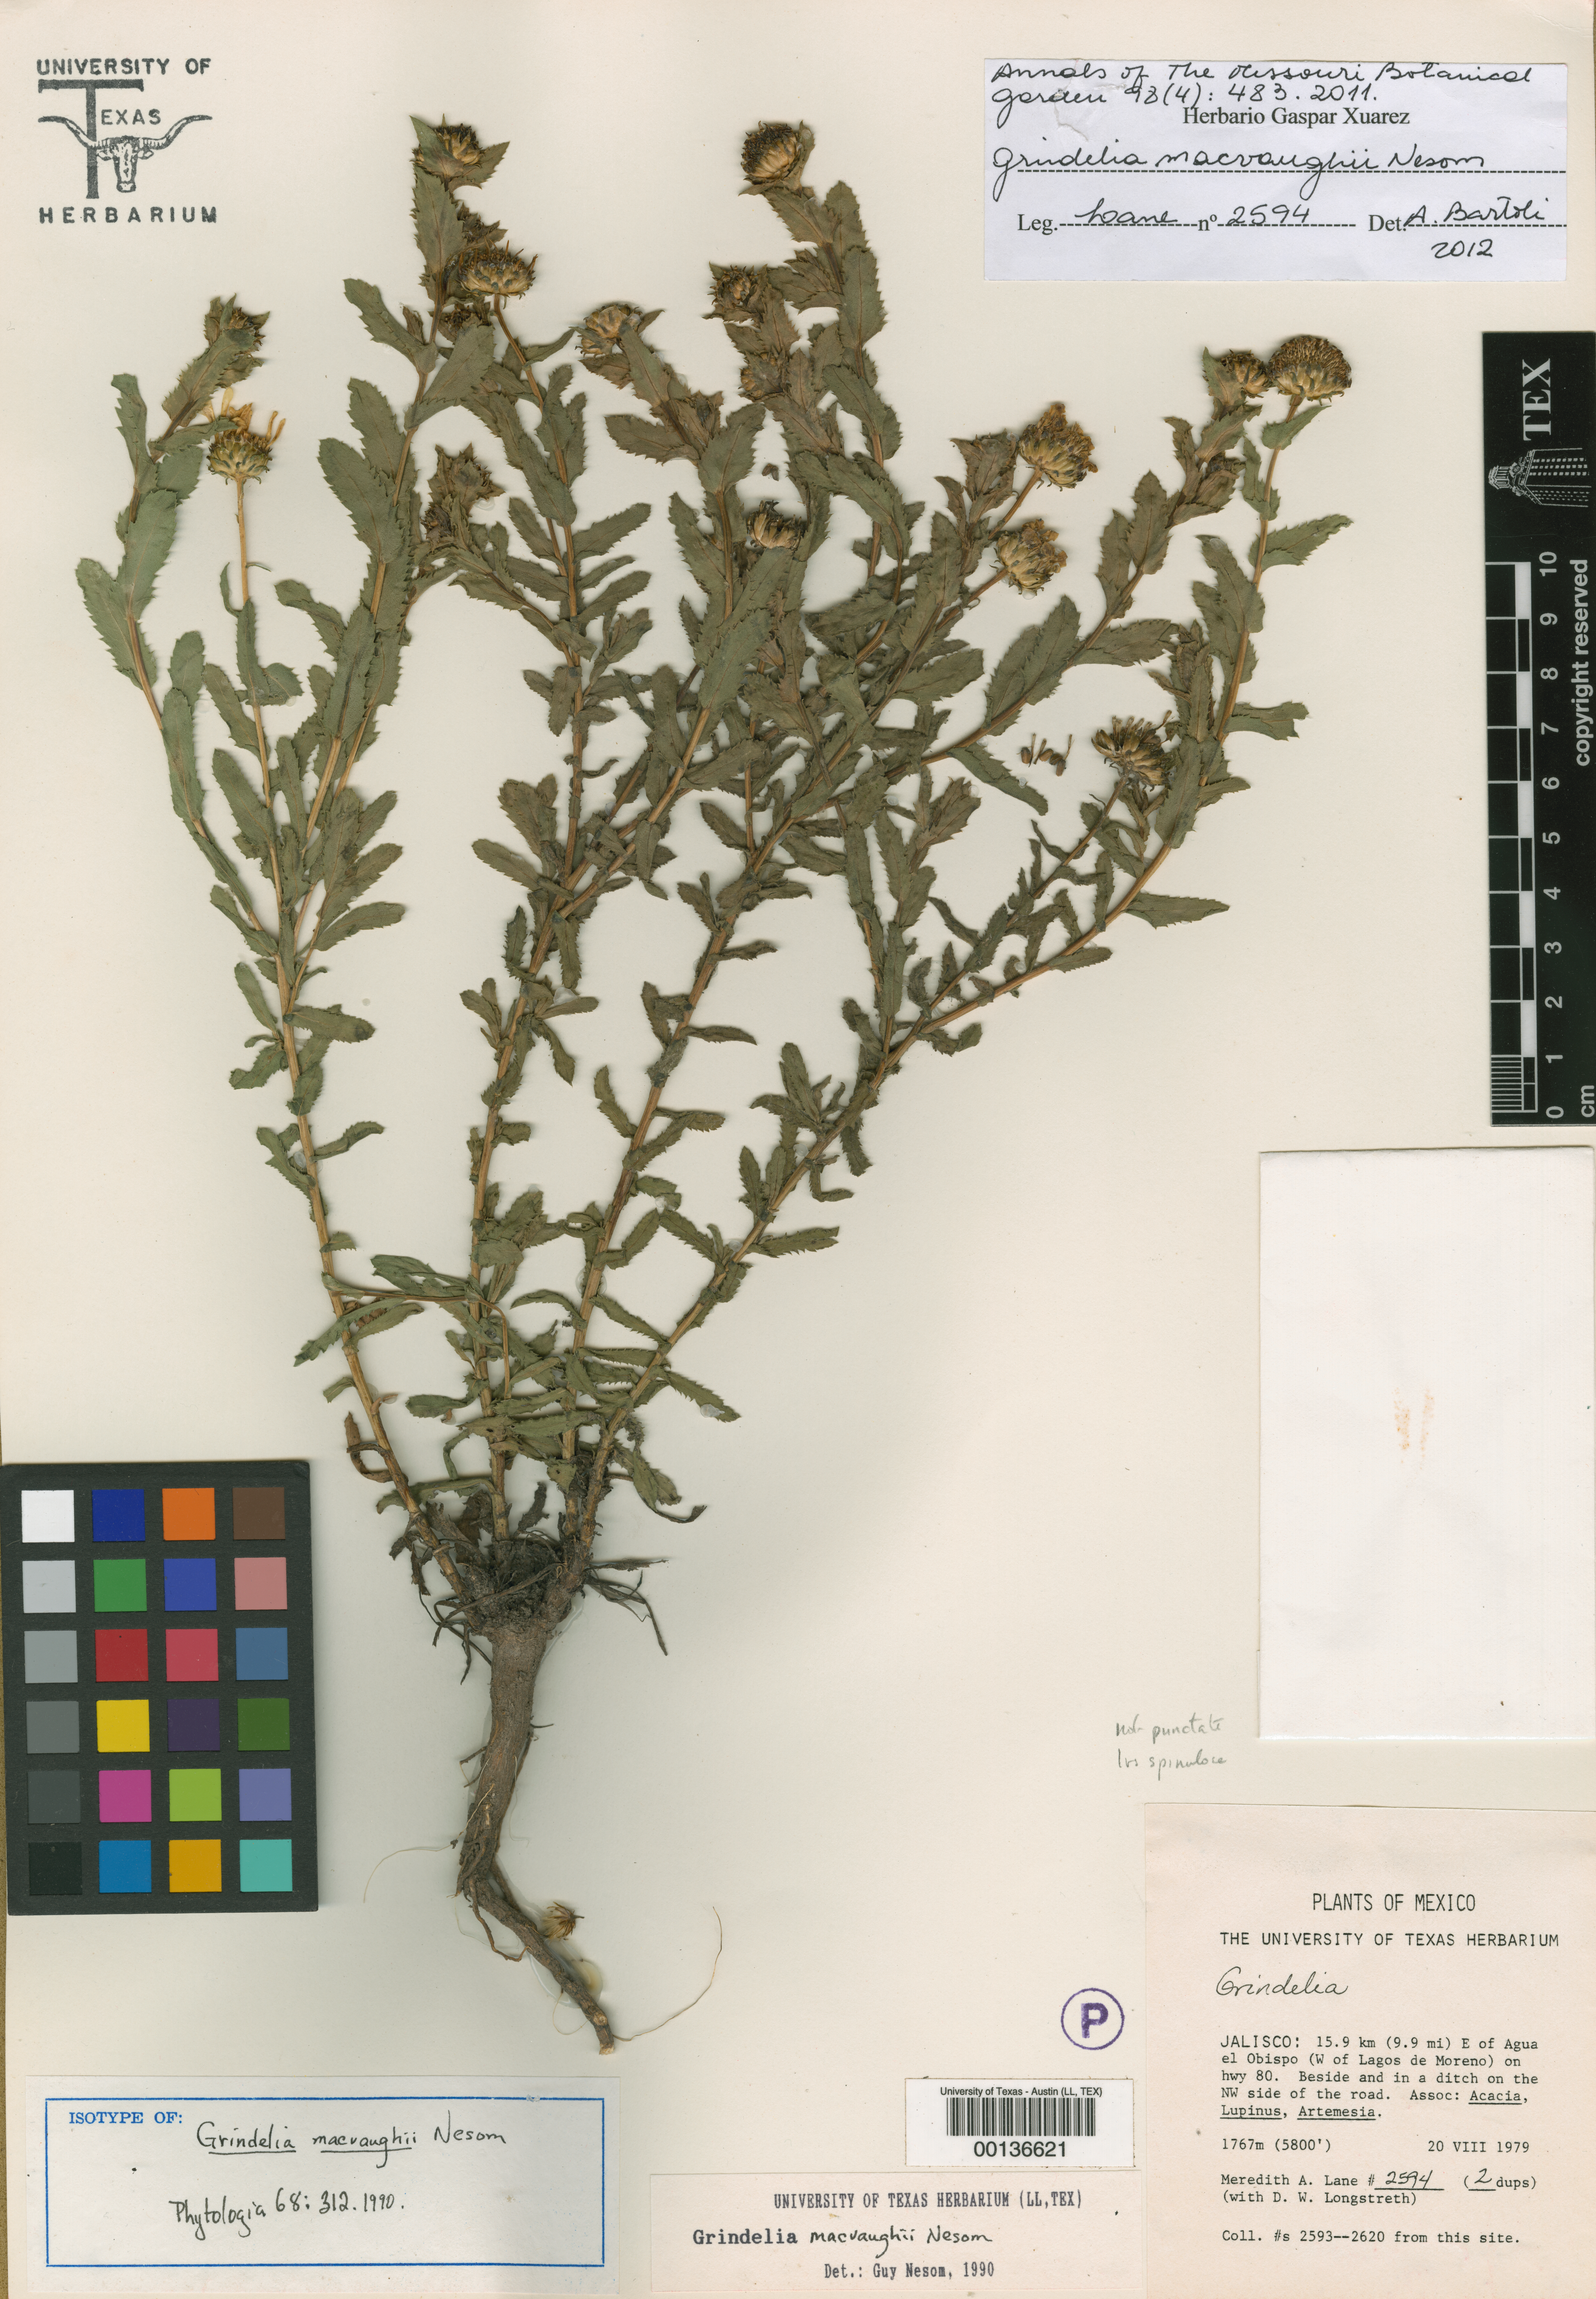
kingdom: Plantae
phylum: Tracheophyta
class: Magnoliopsida
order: Asterales
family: Asteraceae
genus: Grindelia
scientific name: Grindelia macvaughii
